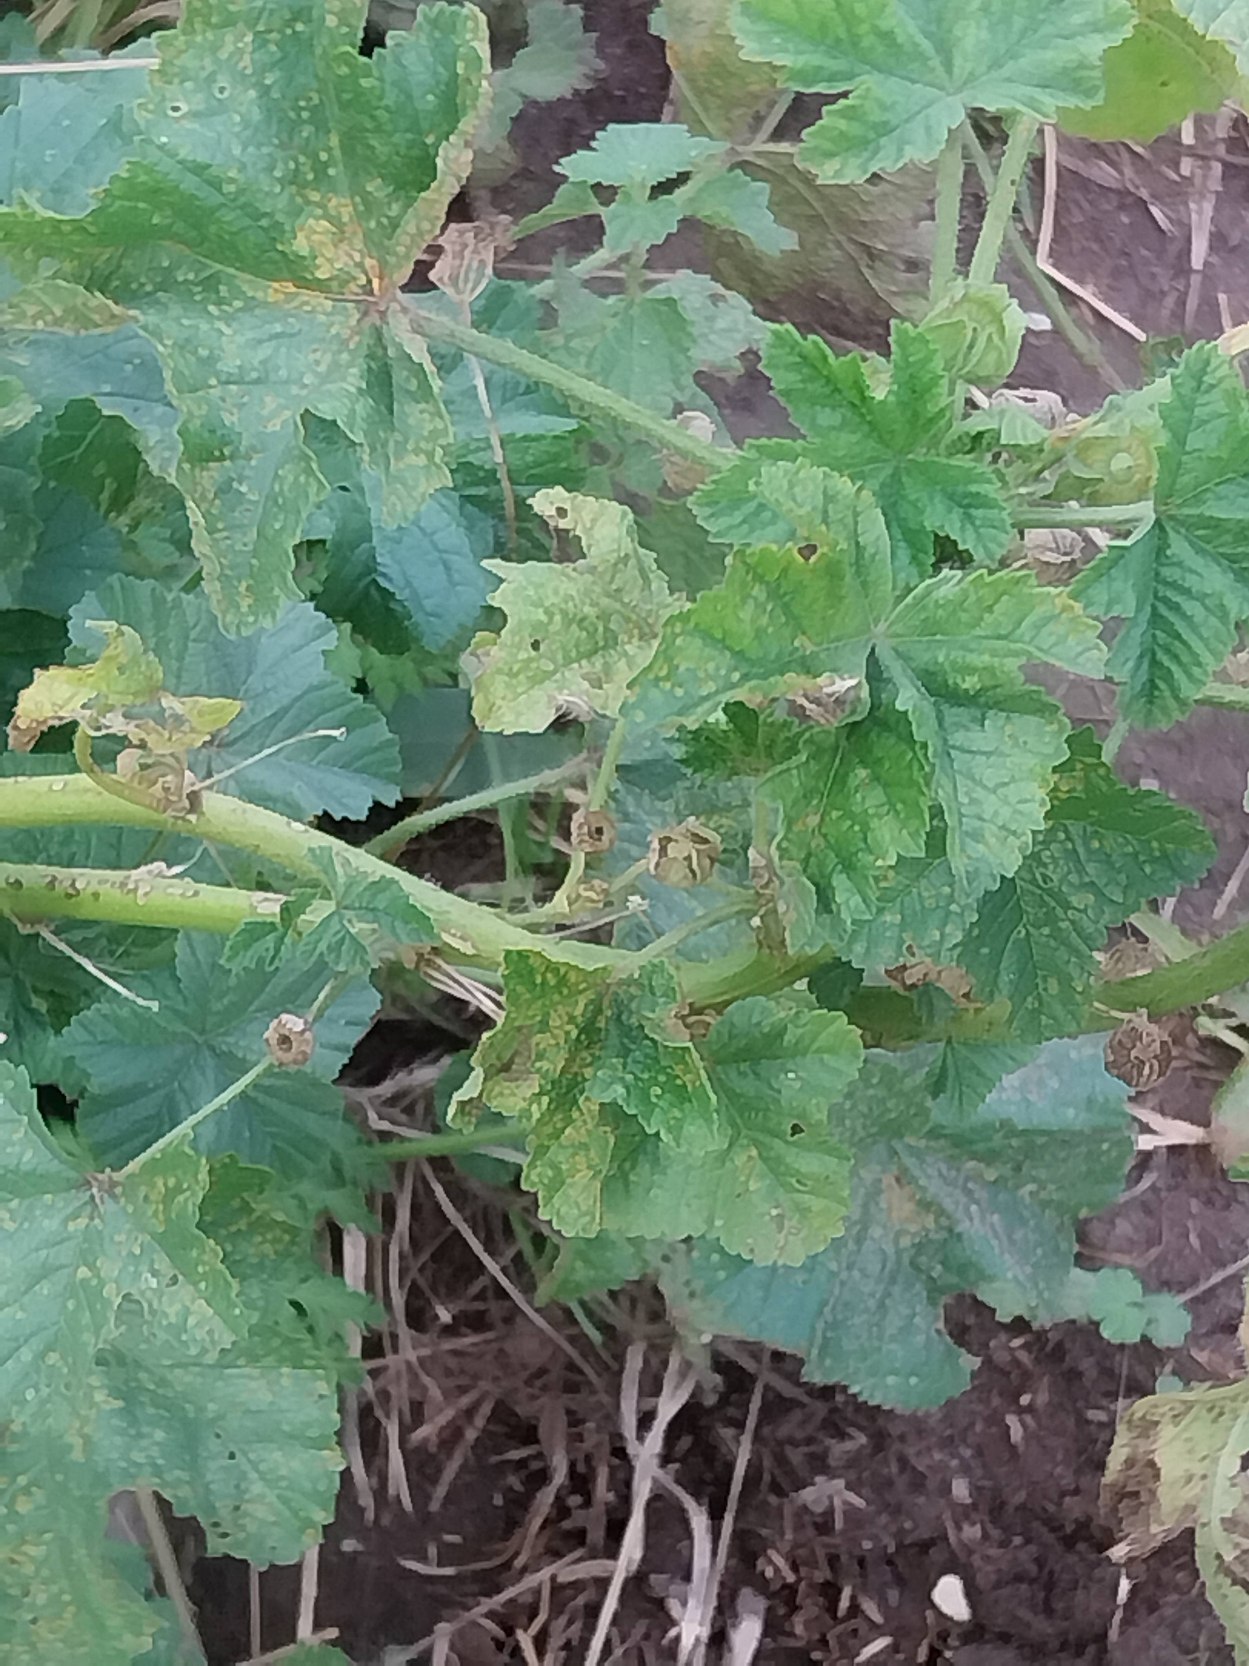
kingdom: Plantae
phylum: Tracheophyta
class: Magnoliopsida
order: Malvales
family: Malvaceae
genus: Malva
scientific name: Malva sylvestris
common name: Almindelig katost
